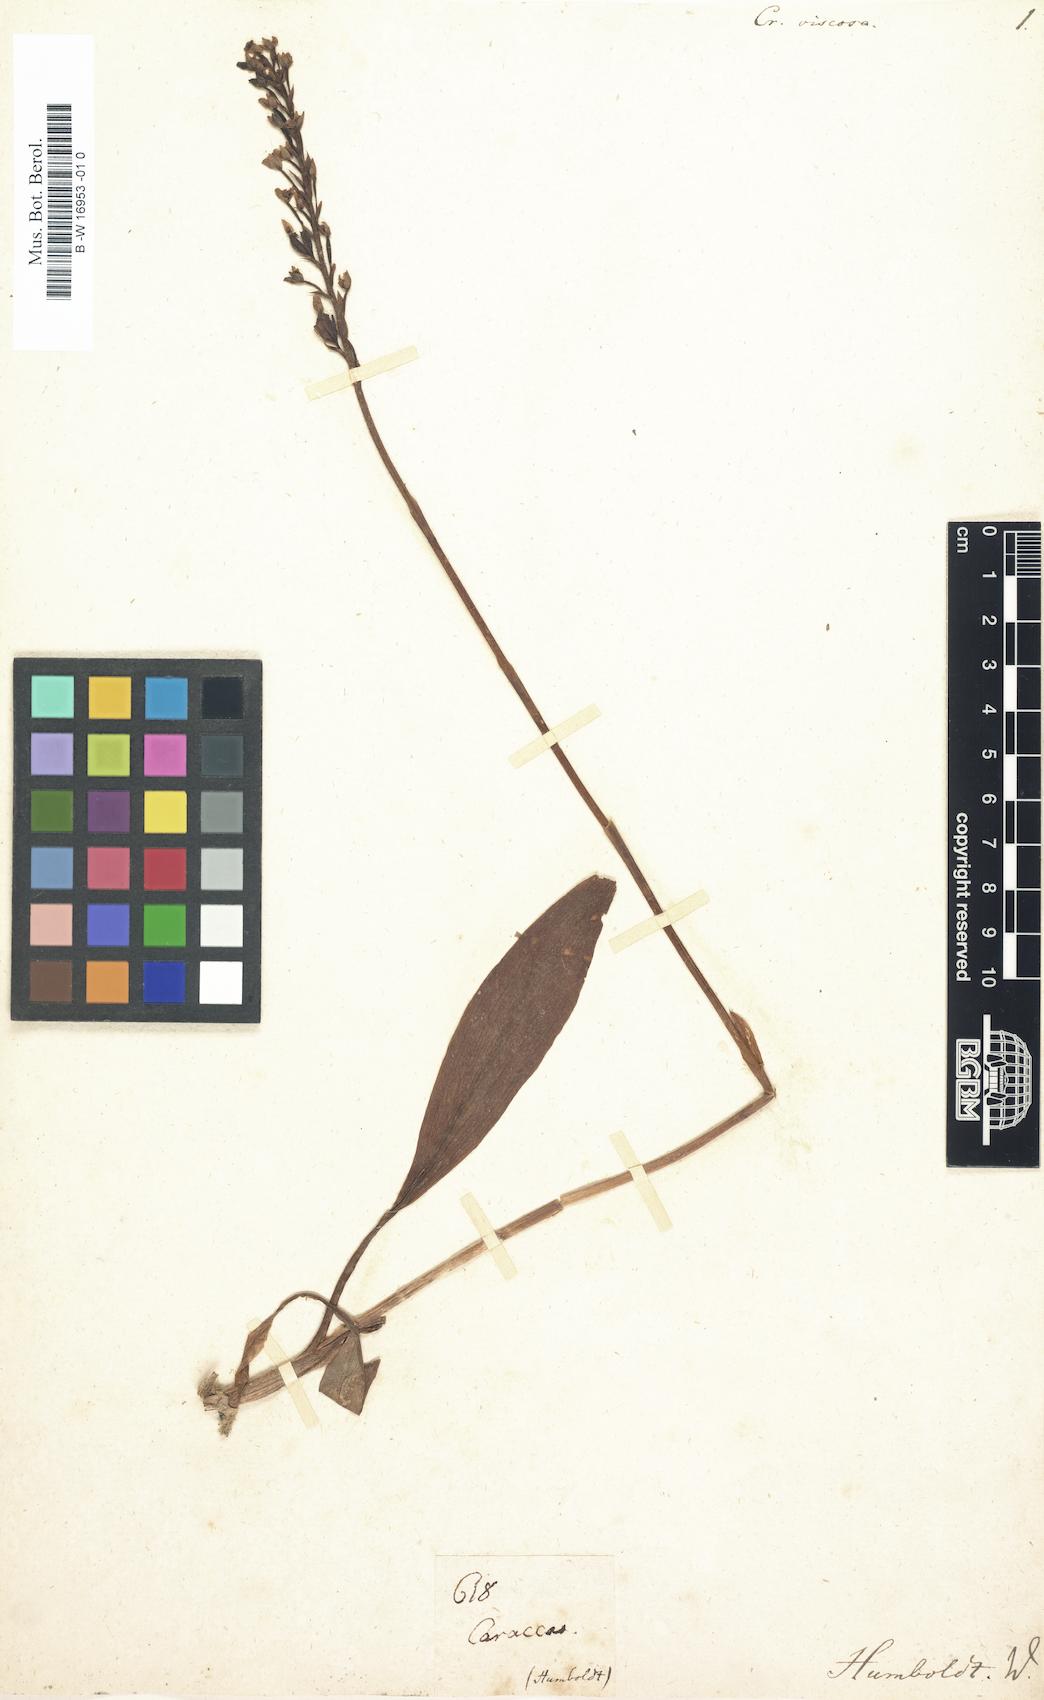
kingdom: Plantae
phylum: Tracheophyta
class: Liliopsida
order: Asparagales
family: Orchidaceae
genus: Cranichis
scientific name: Cranichis
